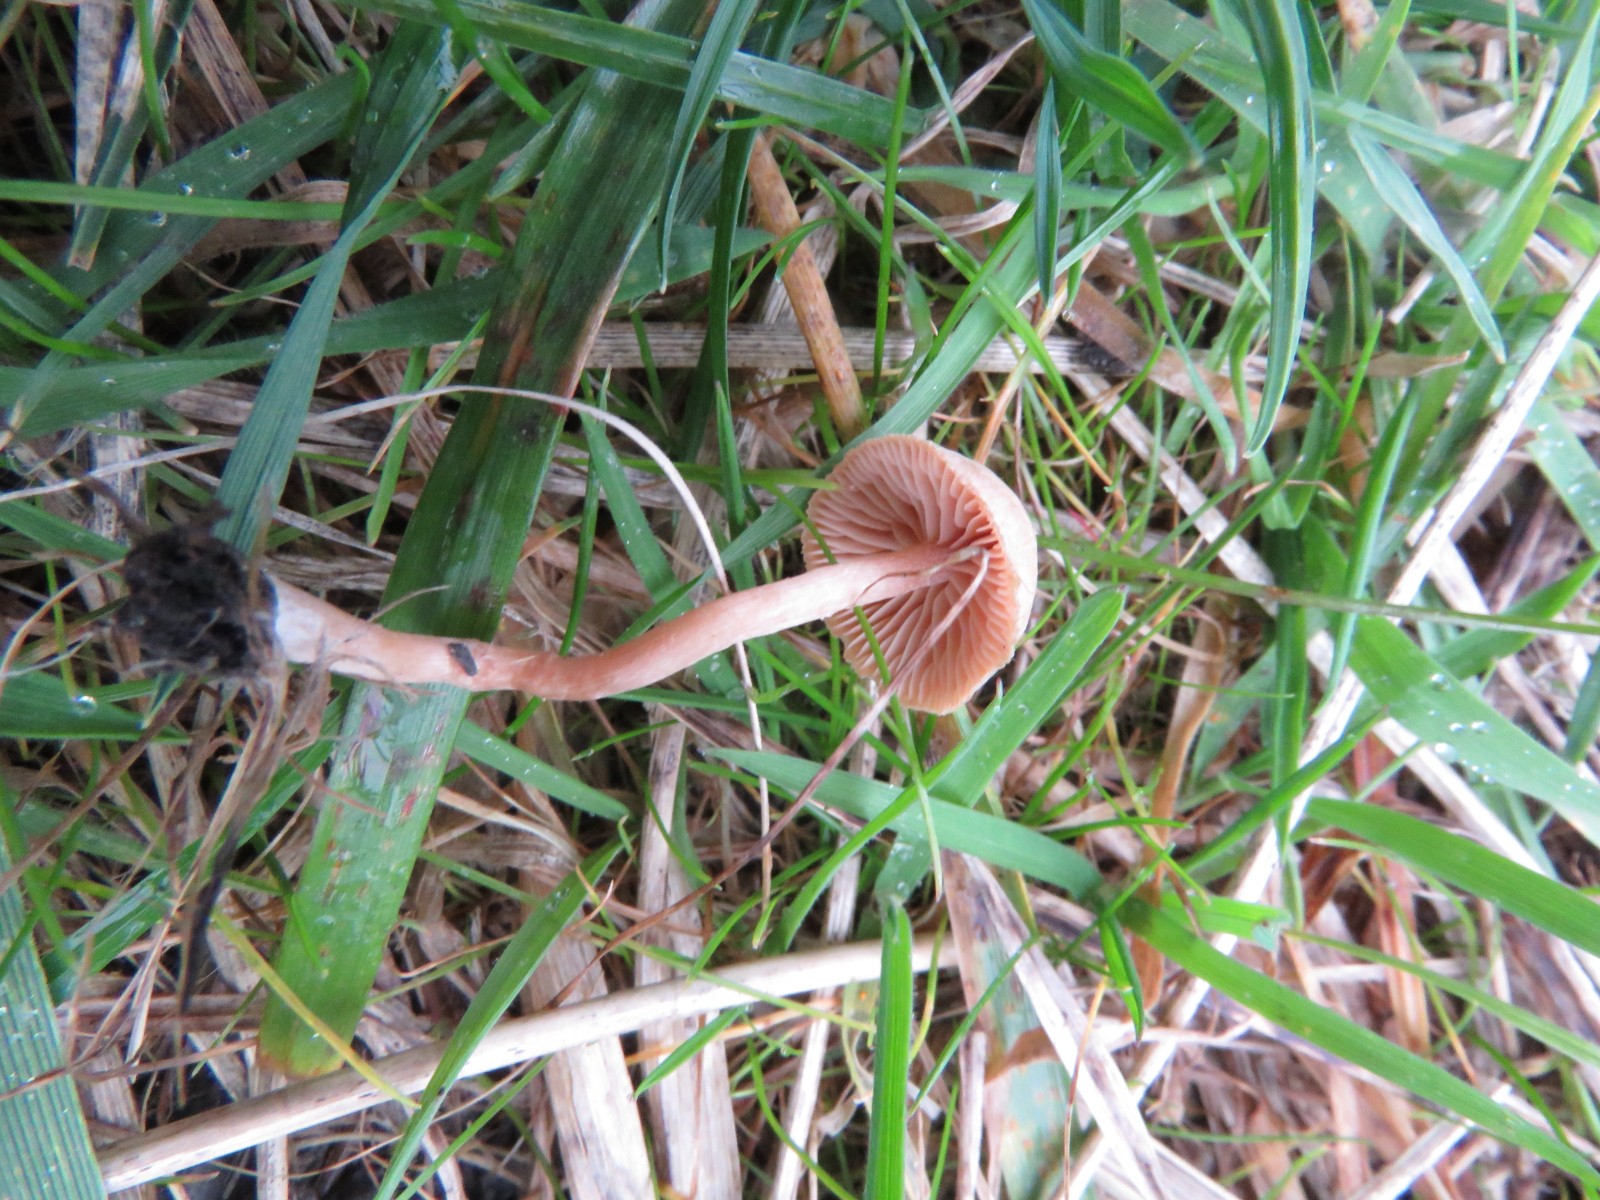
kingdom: Fungi
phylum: Basidiomycota
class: Agaricomycetes
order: Agaricales
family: Tubariaceae
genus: Tubaria
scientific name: Tubaria conspersa
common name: bleg fnughat
